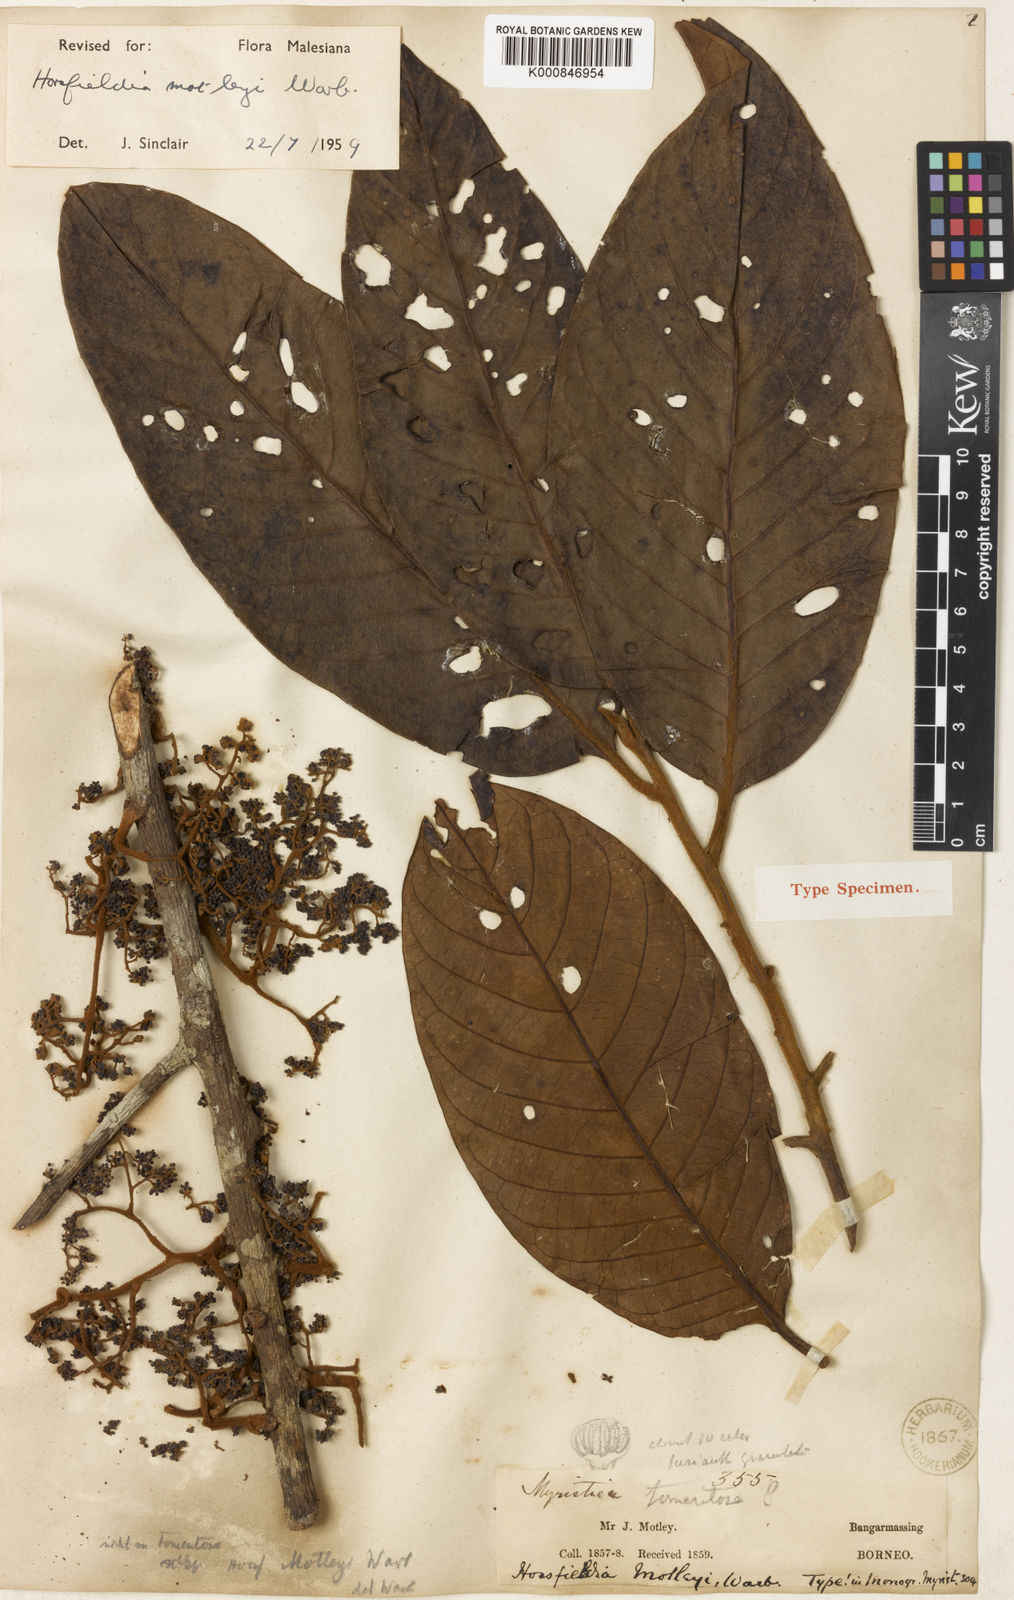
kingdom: Plantae
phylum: Tracheophyta
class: Magnoliopsida
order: Magnoliales
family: Myristicaceae
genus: Horsfieldia
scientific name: Horsfieldia motleyi
